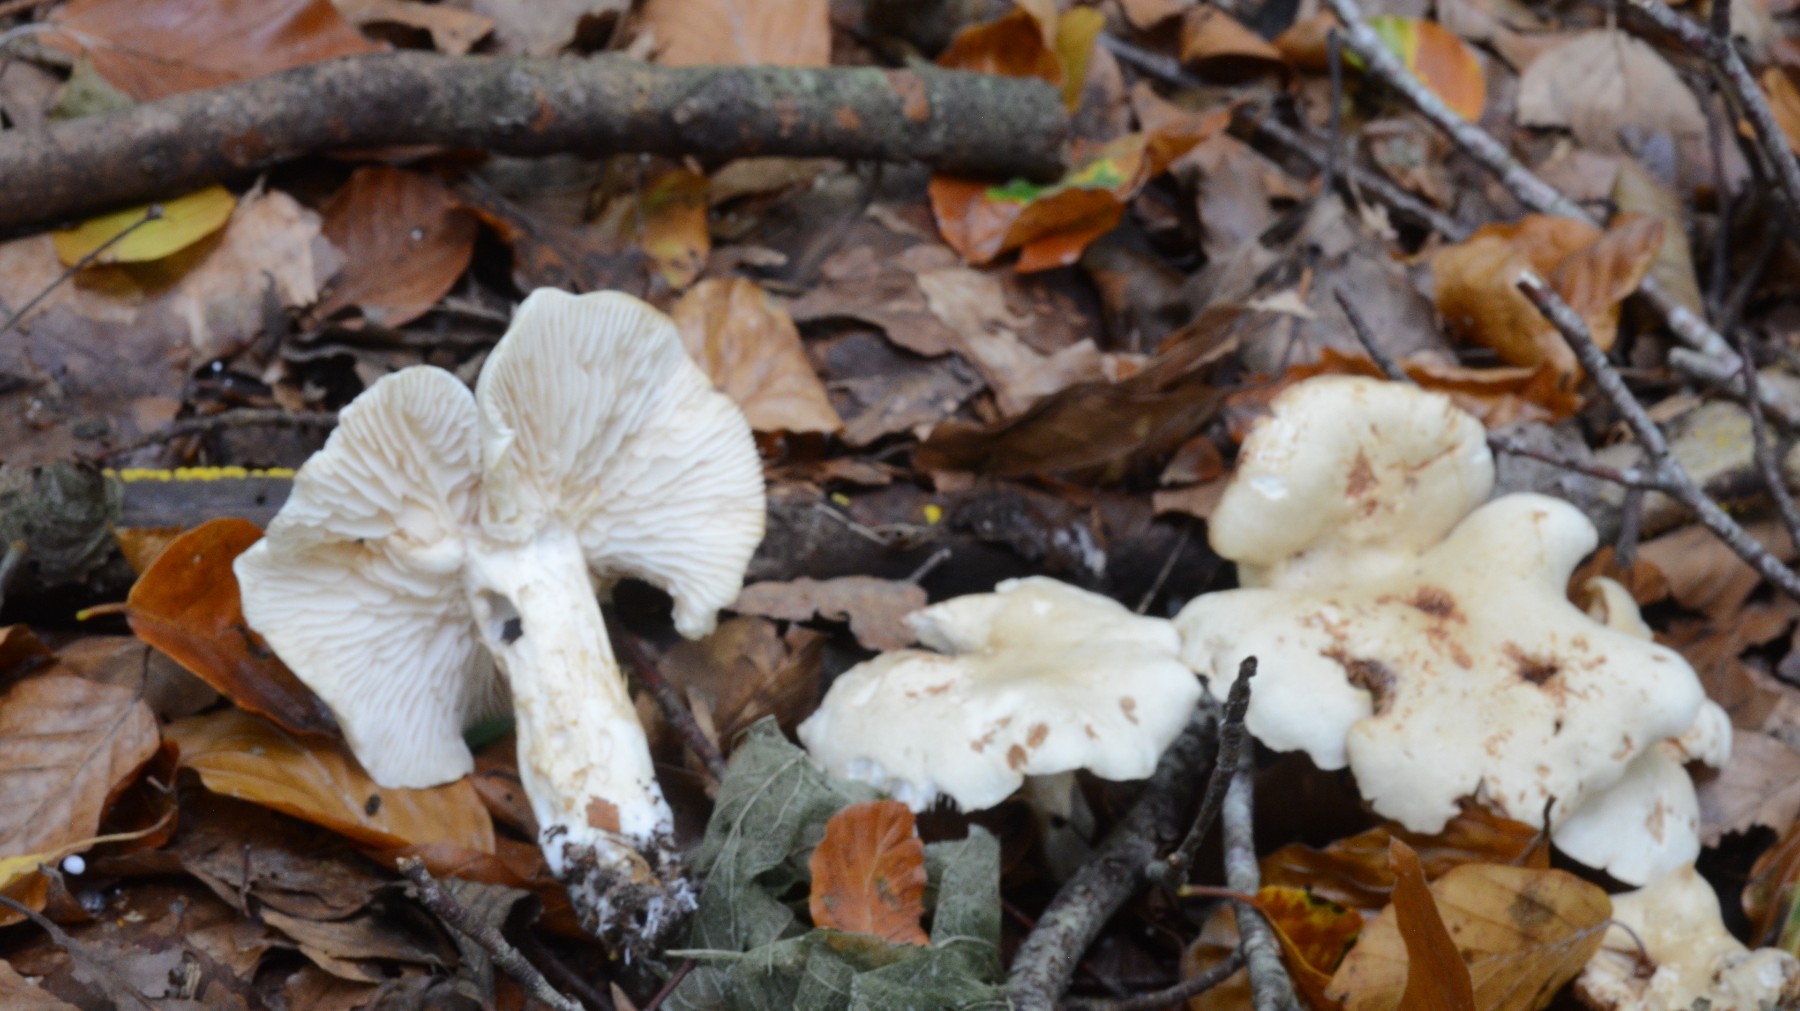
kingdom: Fungi
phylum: Basidiomycota
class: Agaricomycetes
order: Agaricales
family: Tricholomataceae
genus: Tricholoma
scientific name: Tricholoma lascivum
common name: stinkende ridderhat
